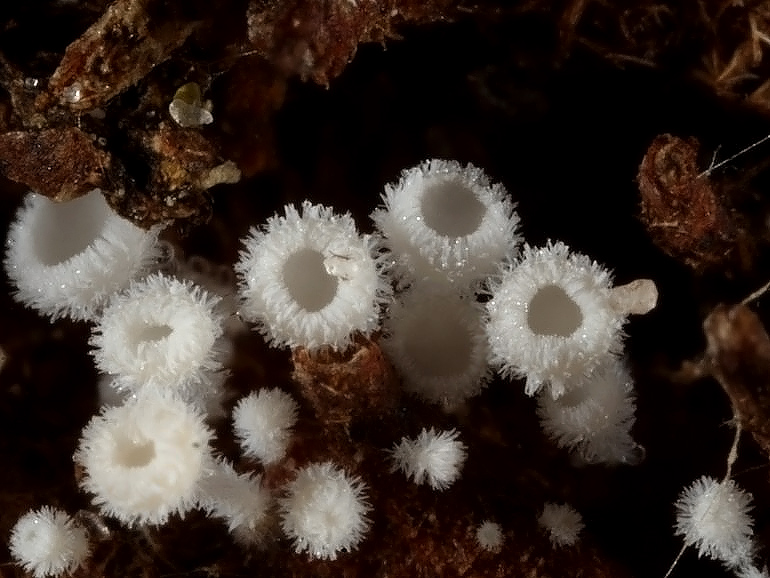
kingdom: Fungi
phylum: Ascomycota
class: Leotiomycetes
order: Helotiales
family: Lachnaceae
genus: Lachnum
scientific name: Lachnum virgineum
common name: jomfru-frynseskive
